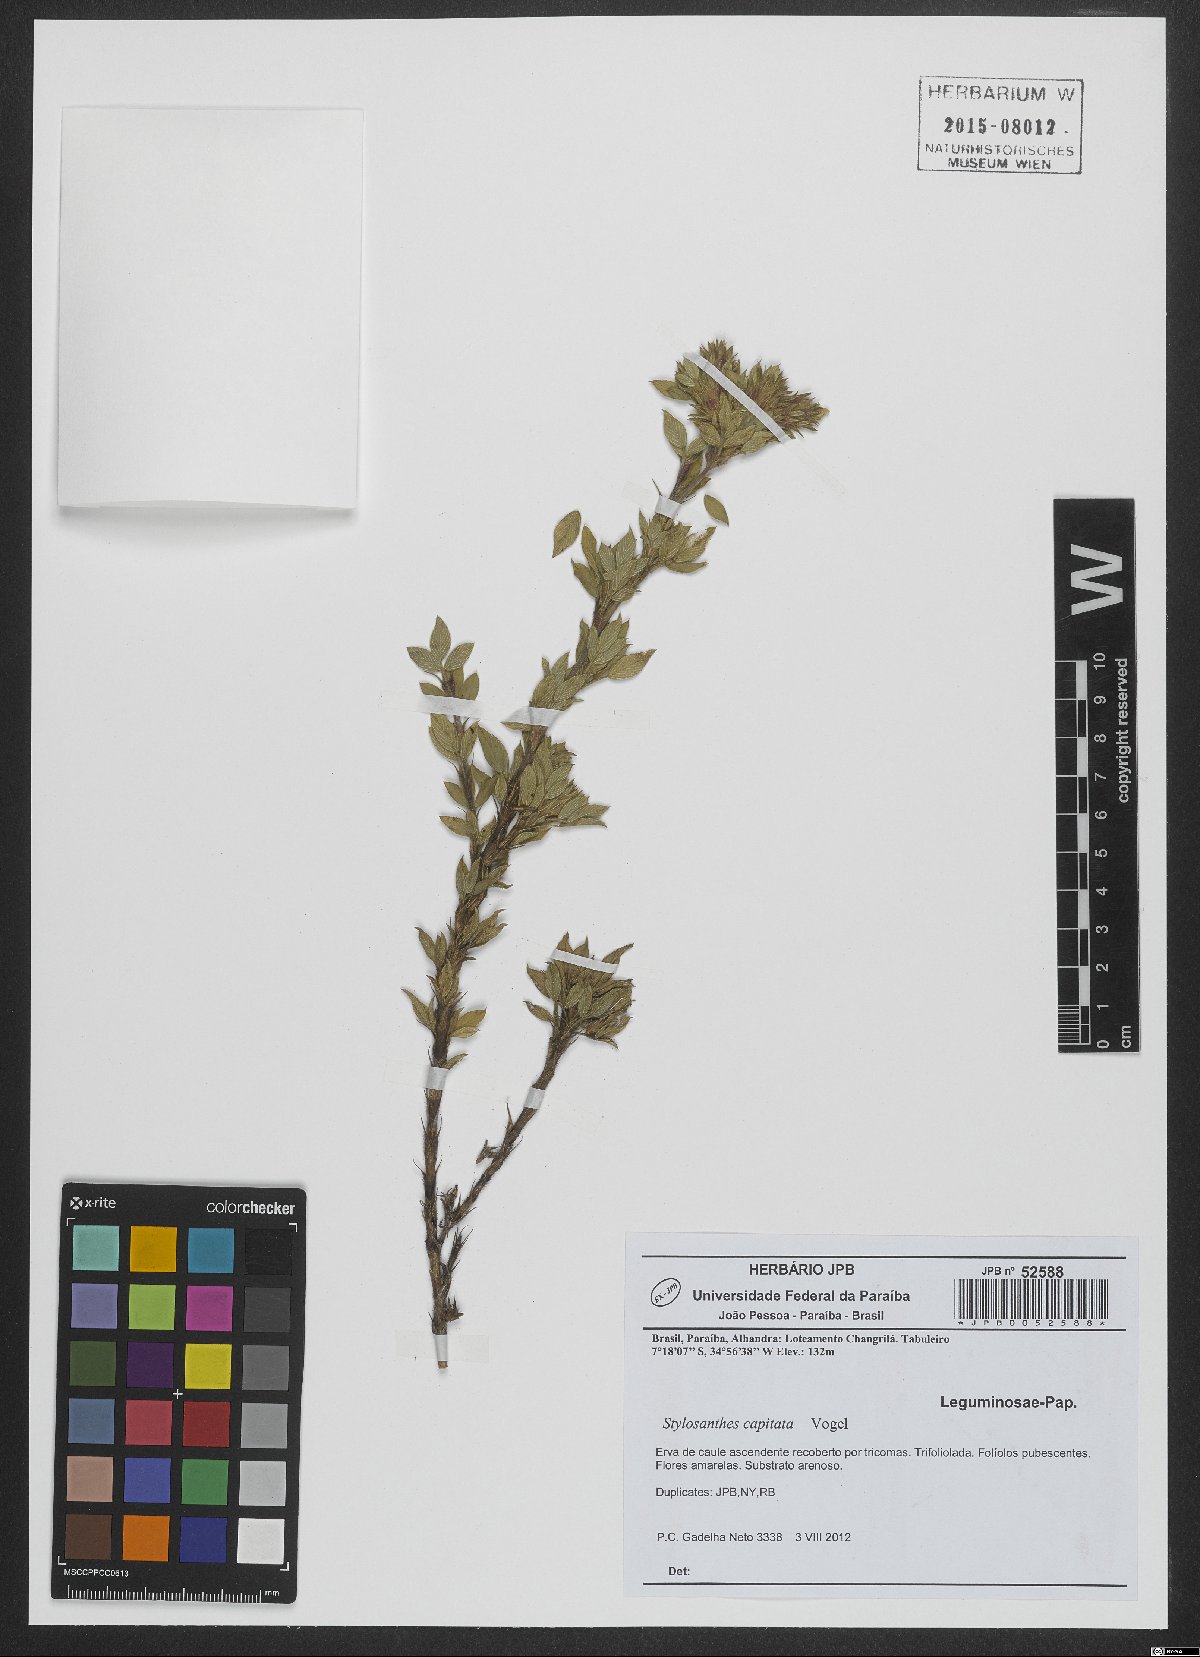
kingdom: Plantae
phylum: Tracheophyta
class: Magnoliopsida
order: Fabales
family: Fabaceae
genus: Stylosanthes
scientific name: Stylosanthes capitata
